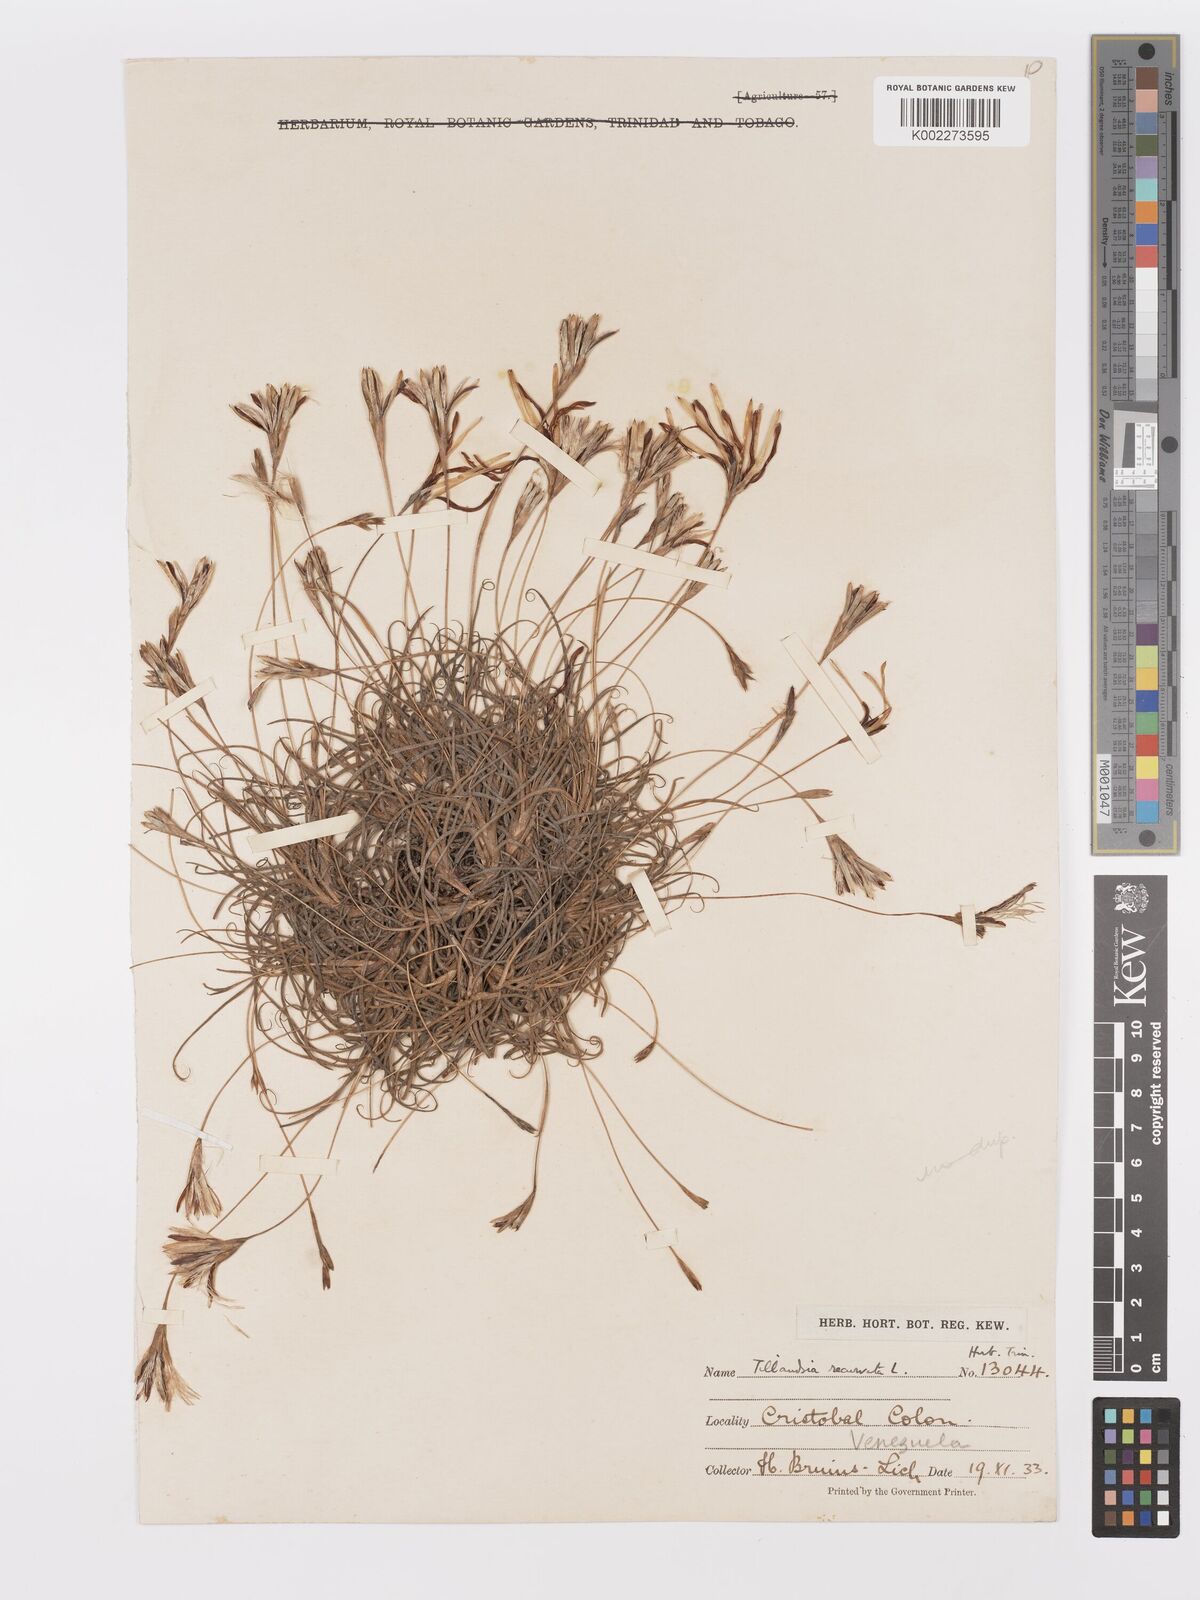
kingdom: Plantae
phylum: Tracheophyta
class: Liliopsida
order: Poales
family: Bromeliaceae
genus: Tillandsia
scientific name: Tillandsia recurvata
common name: Small ballmoss
